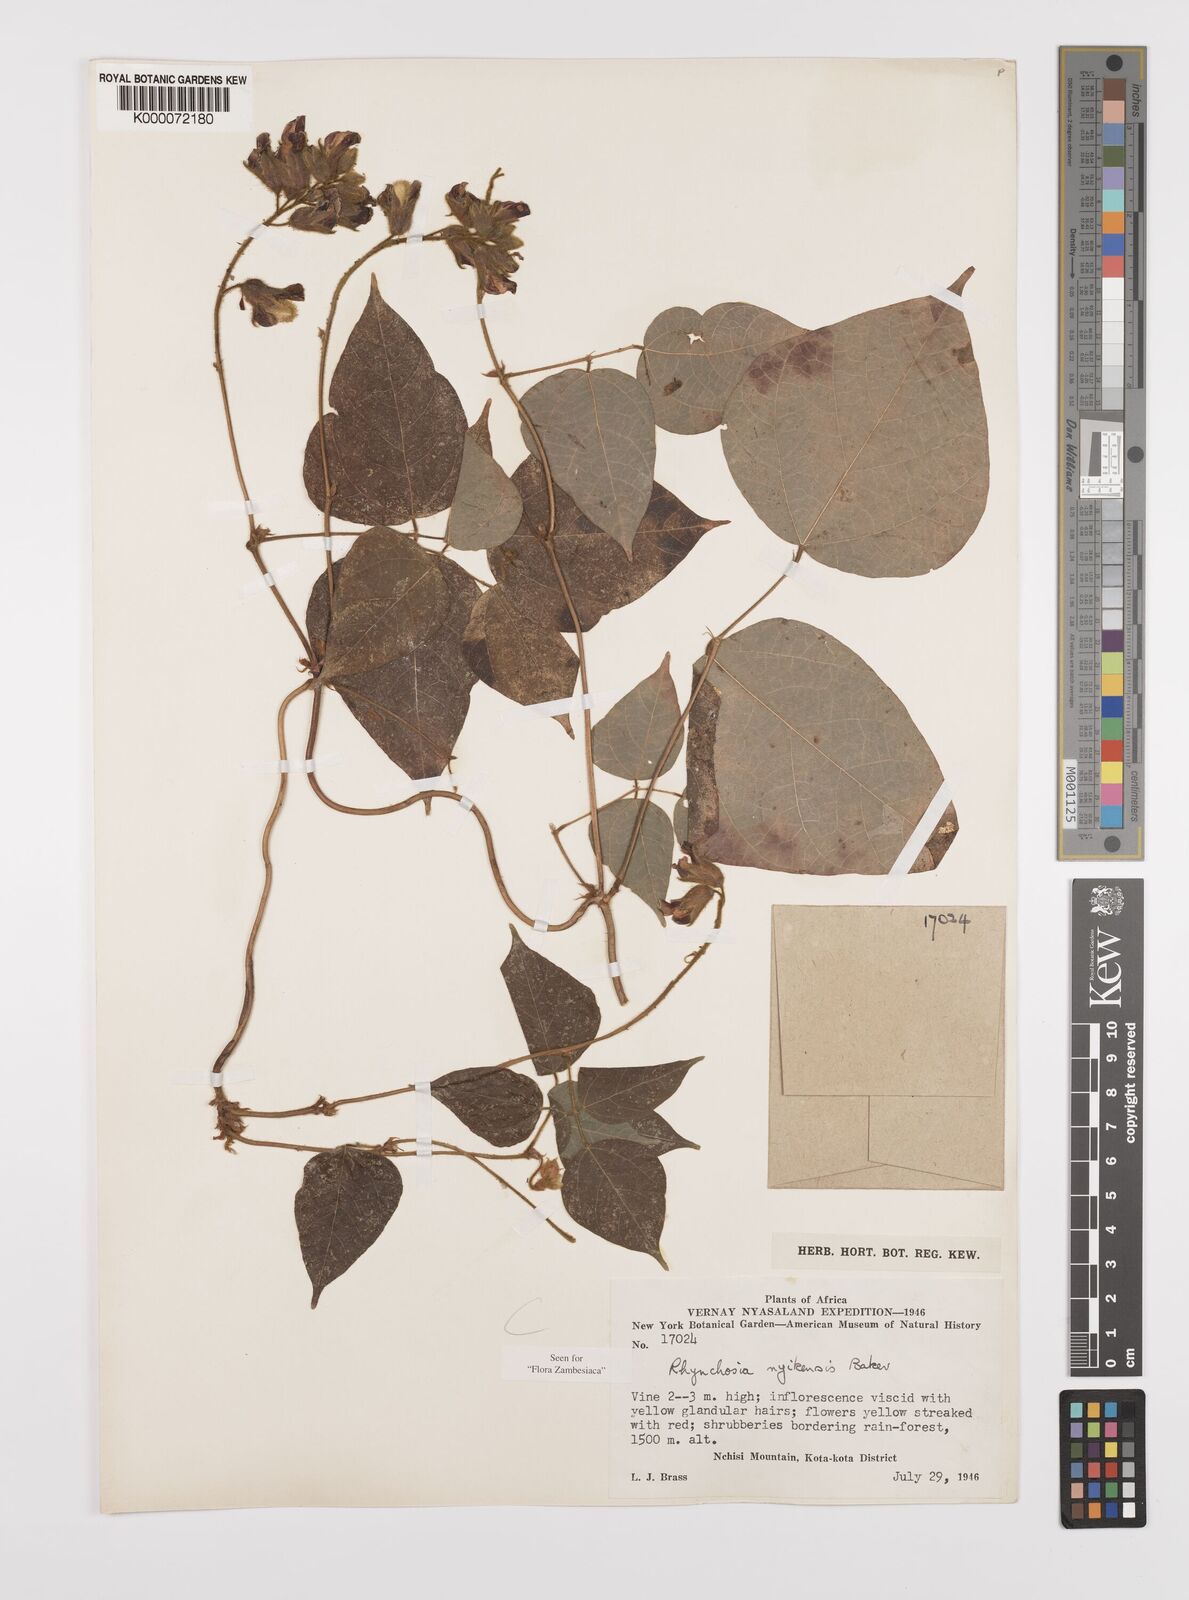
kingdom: Plantae
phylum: Tracheophyta
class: Magnoliopsida
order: Fabales
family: Fabaceae
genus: Rhynchosia
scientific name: Rhynchosia nyikensis
